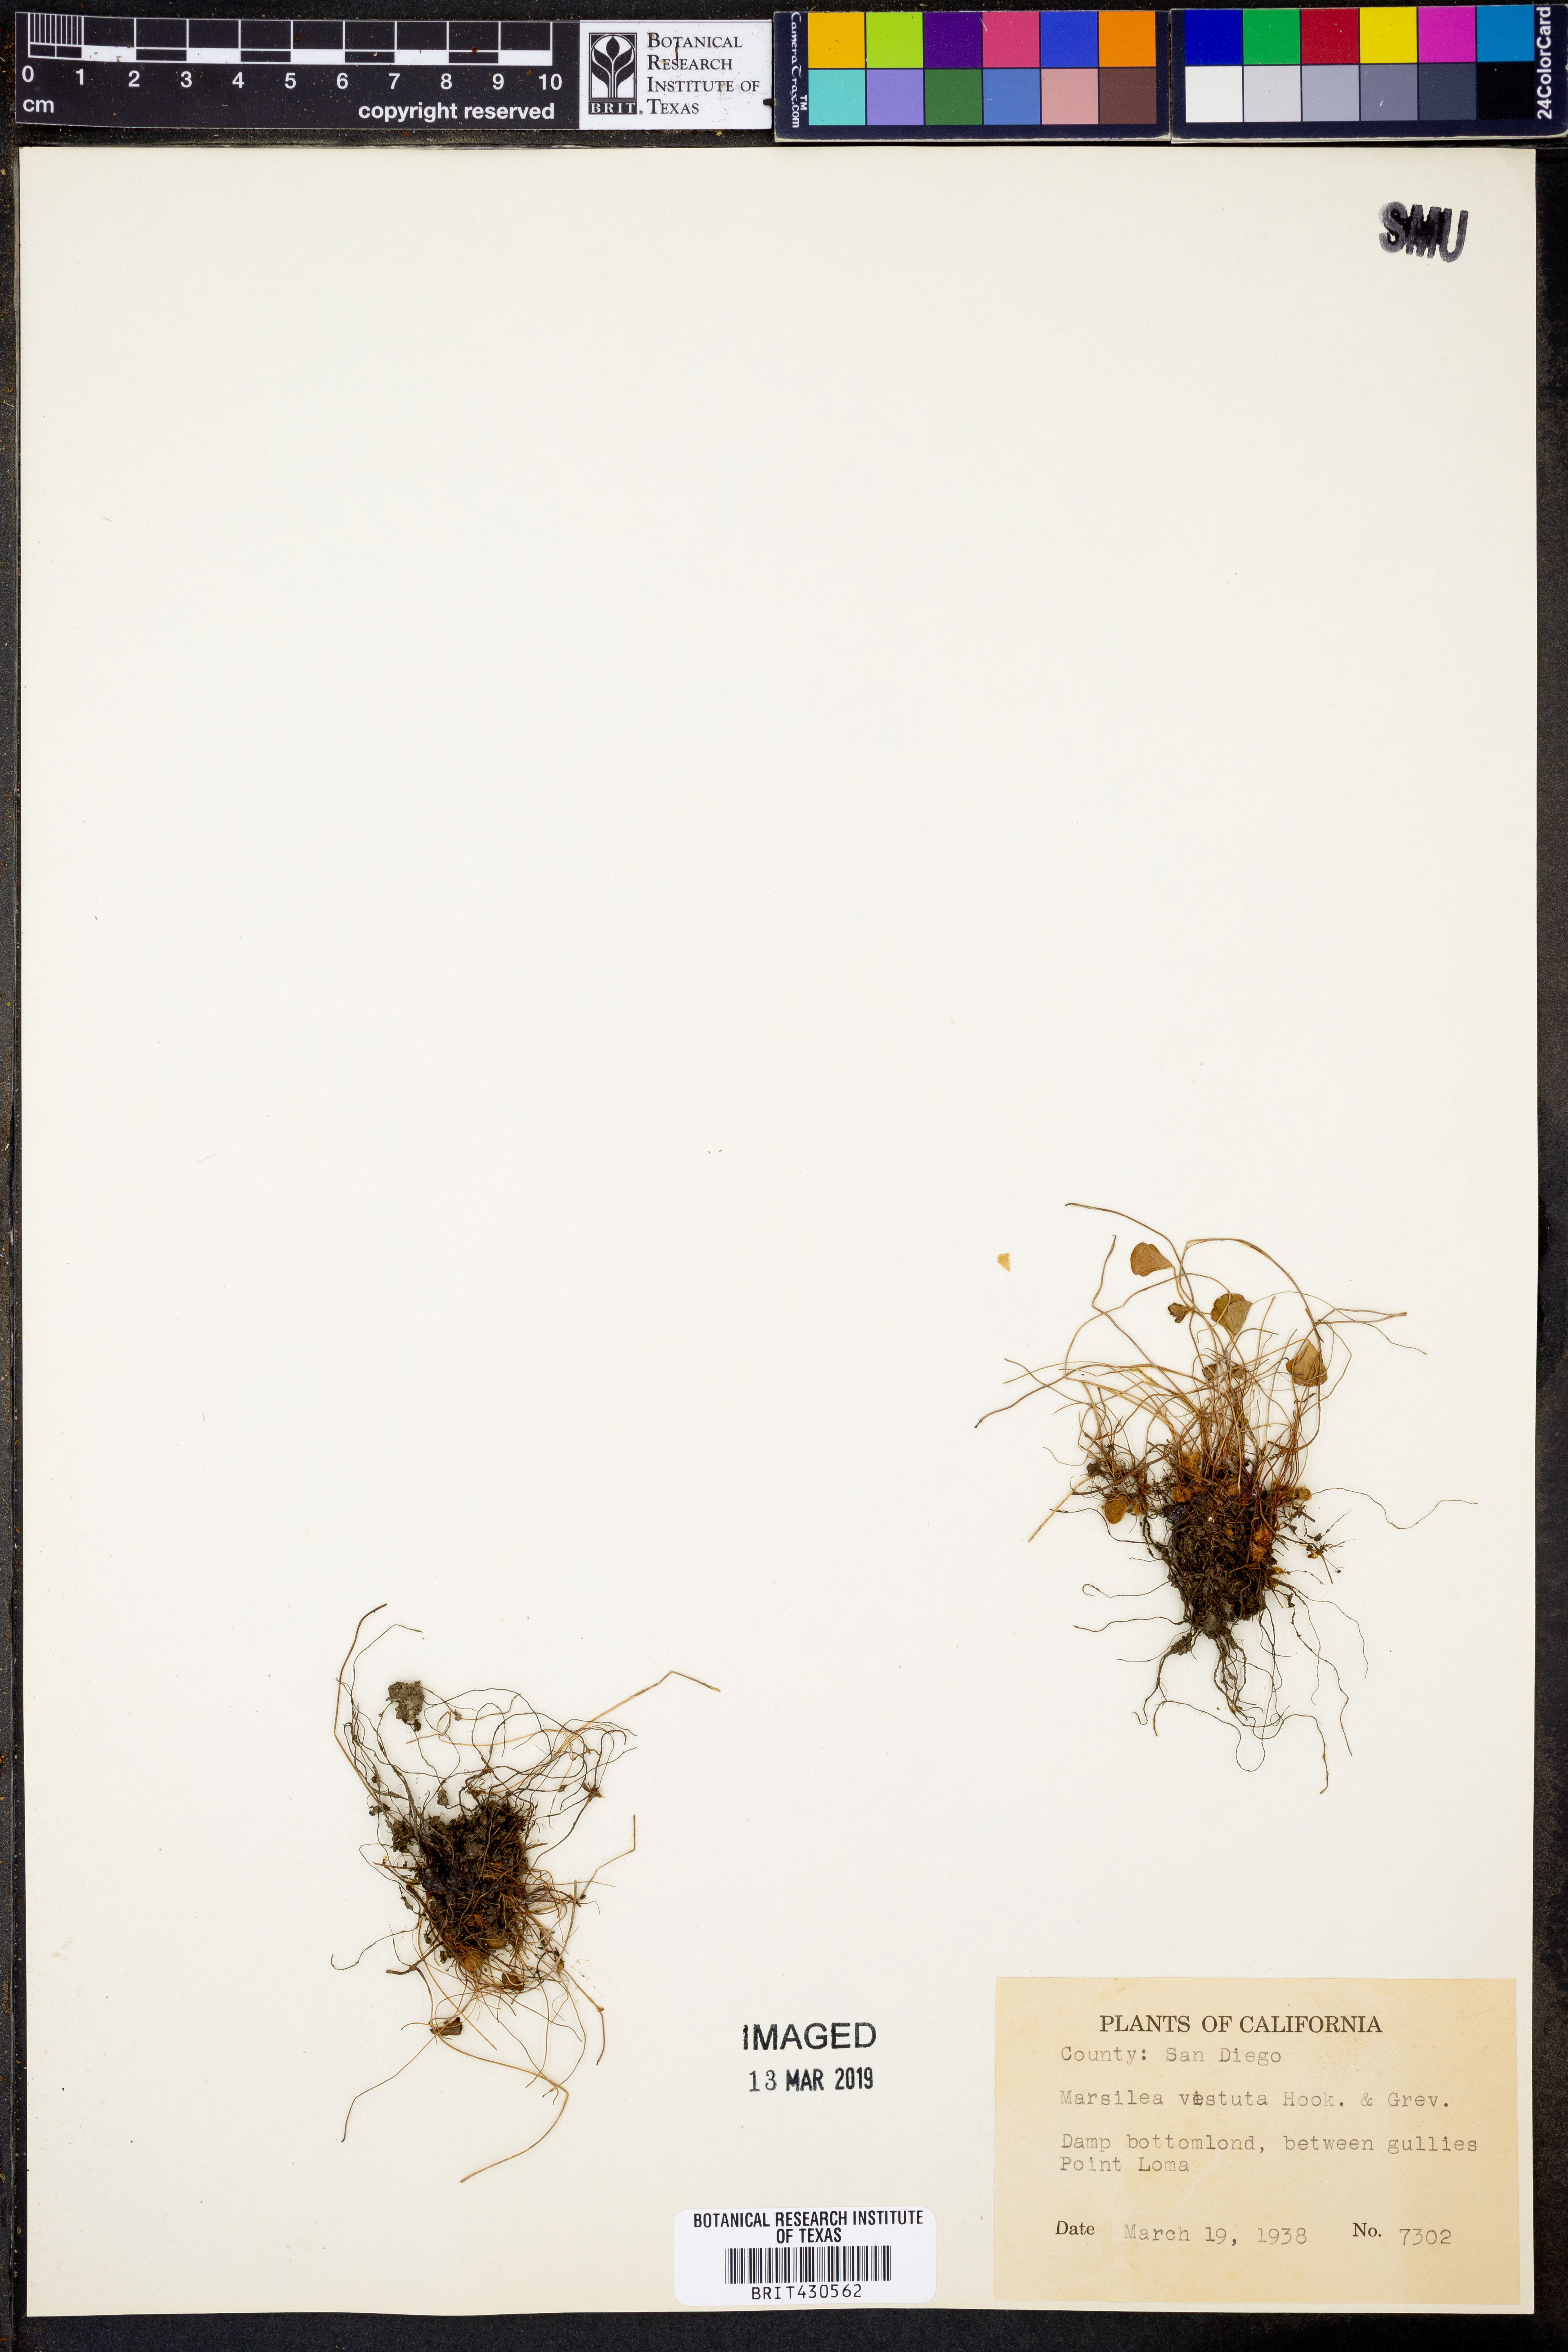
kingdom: Plantae
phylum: Tracheophyta
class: Polypodiopsida
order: Salviniales
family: Marsileaceae
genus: Marsilea
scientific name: Marsilea vestita
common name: Hooked-pepperwort
